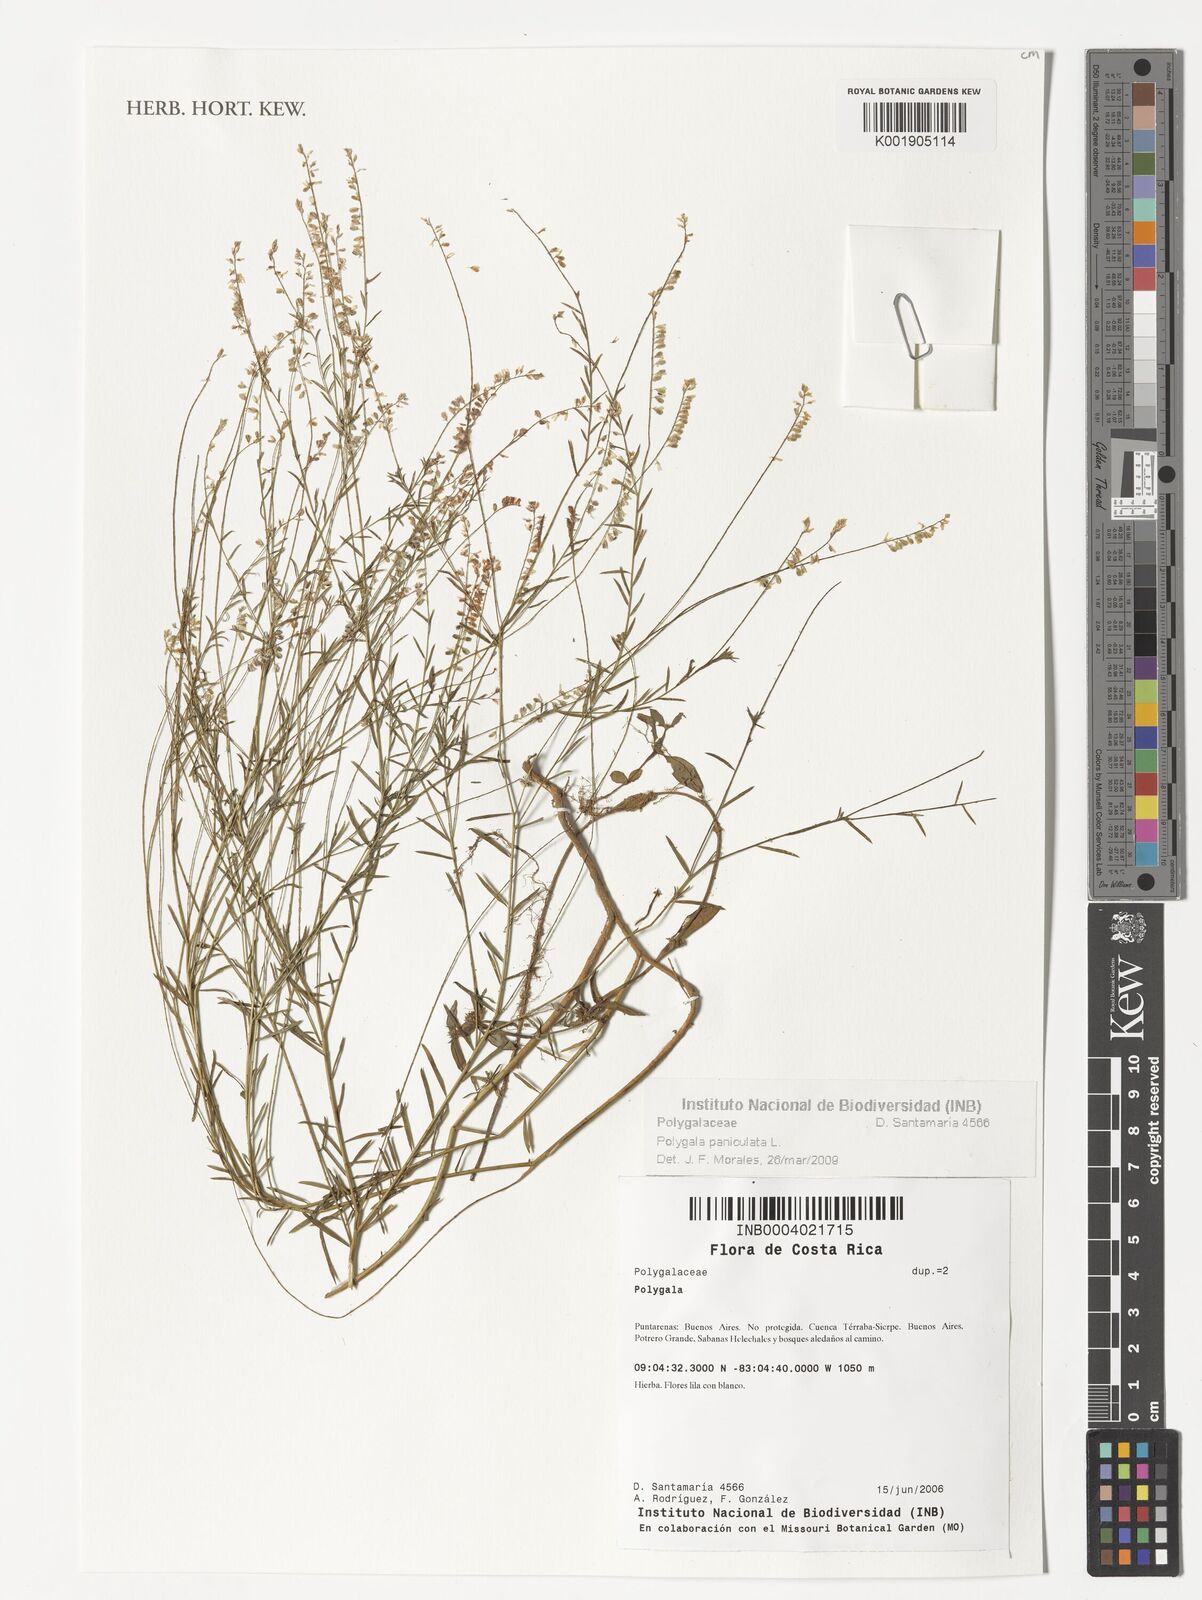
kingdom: Plantae
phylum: Tracheophyta
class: Magnoliopsida
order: Fabales
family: Polygalaceae
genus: Polygala
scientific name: Polygala paniculata
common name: Orosne
